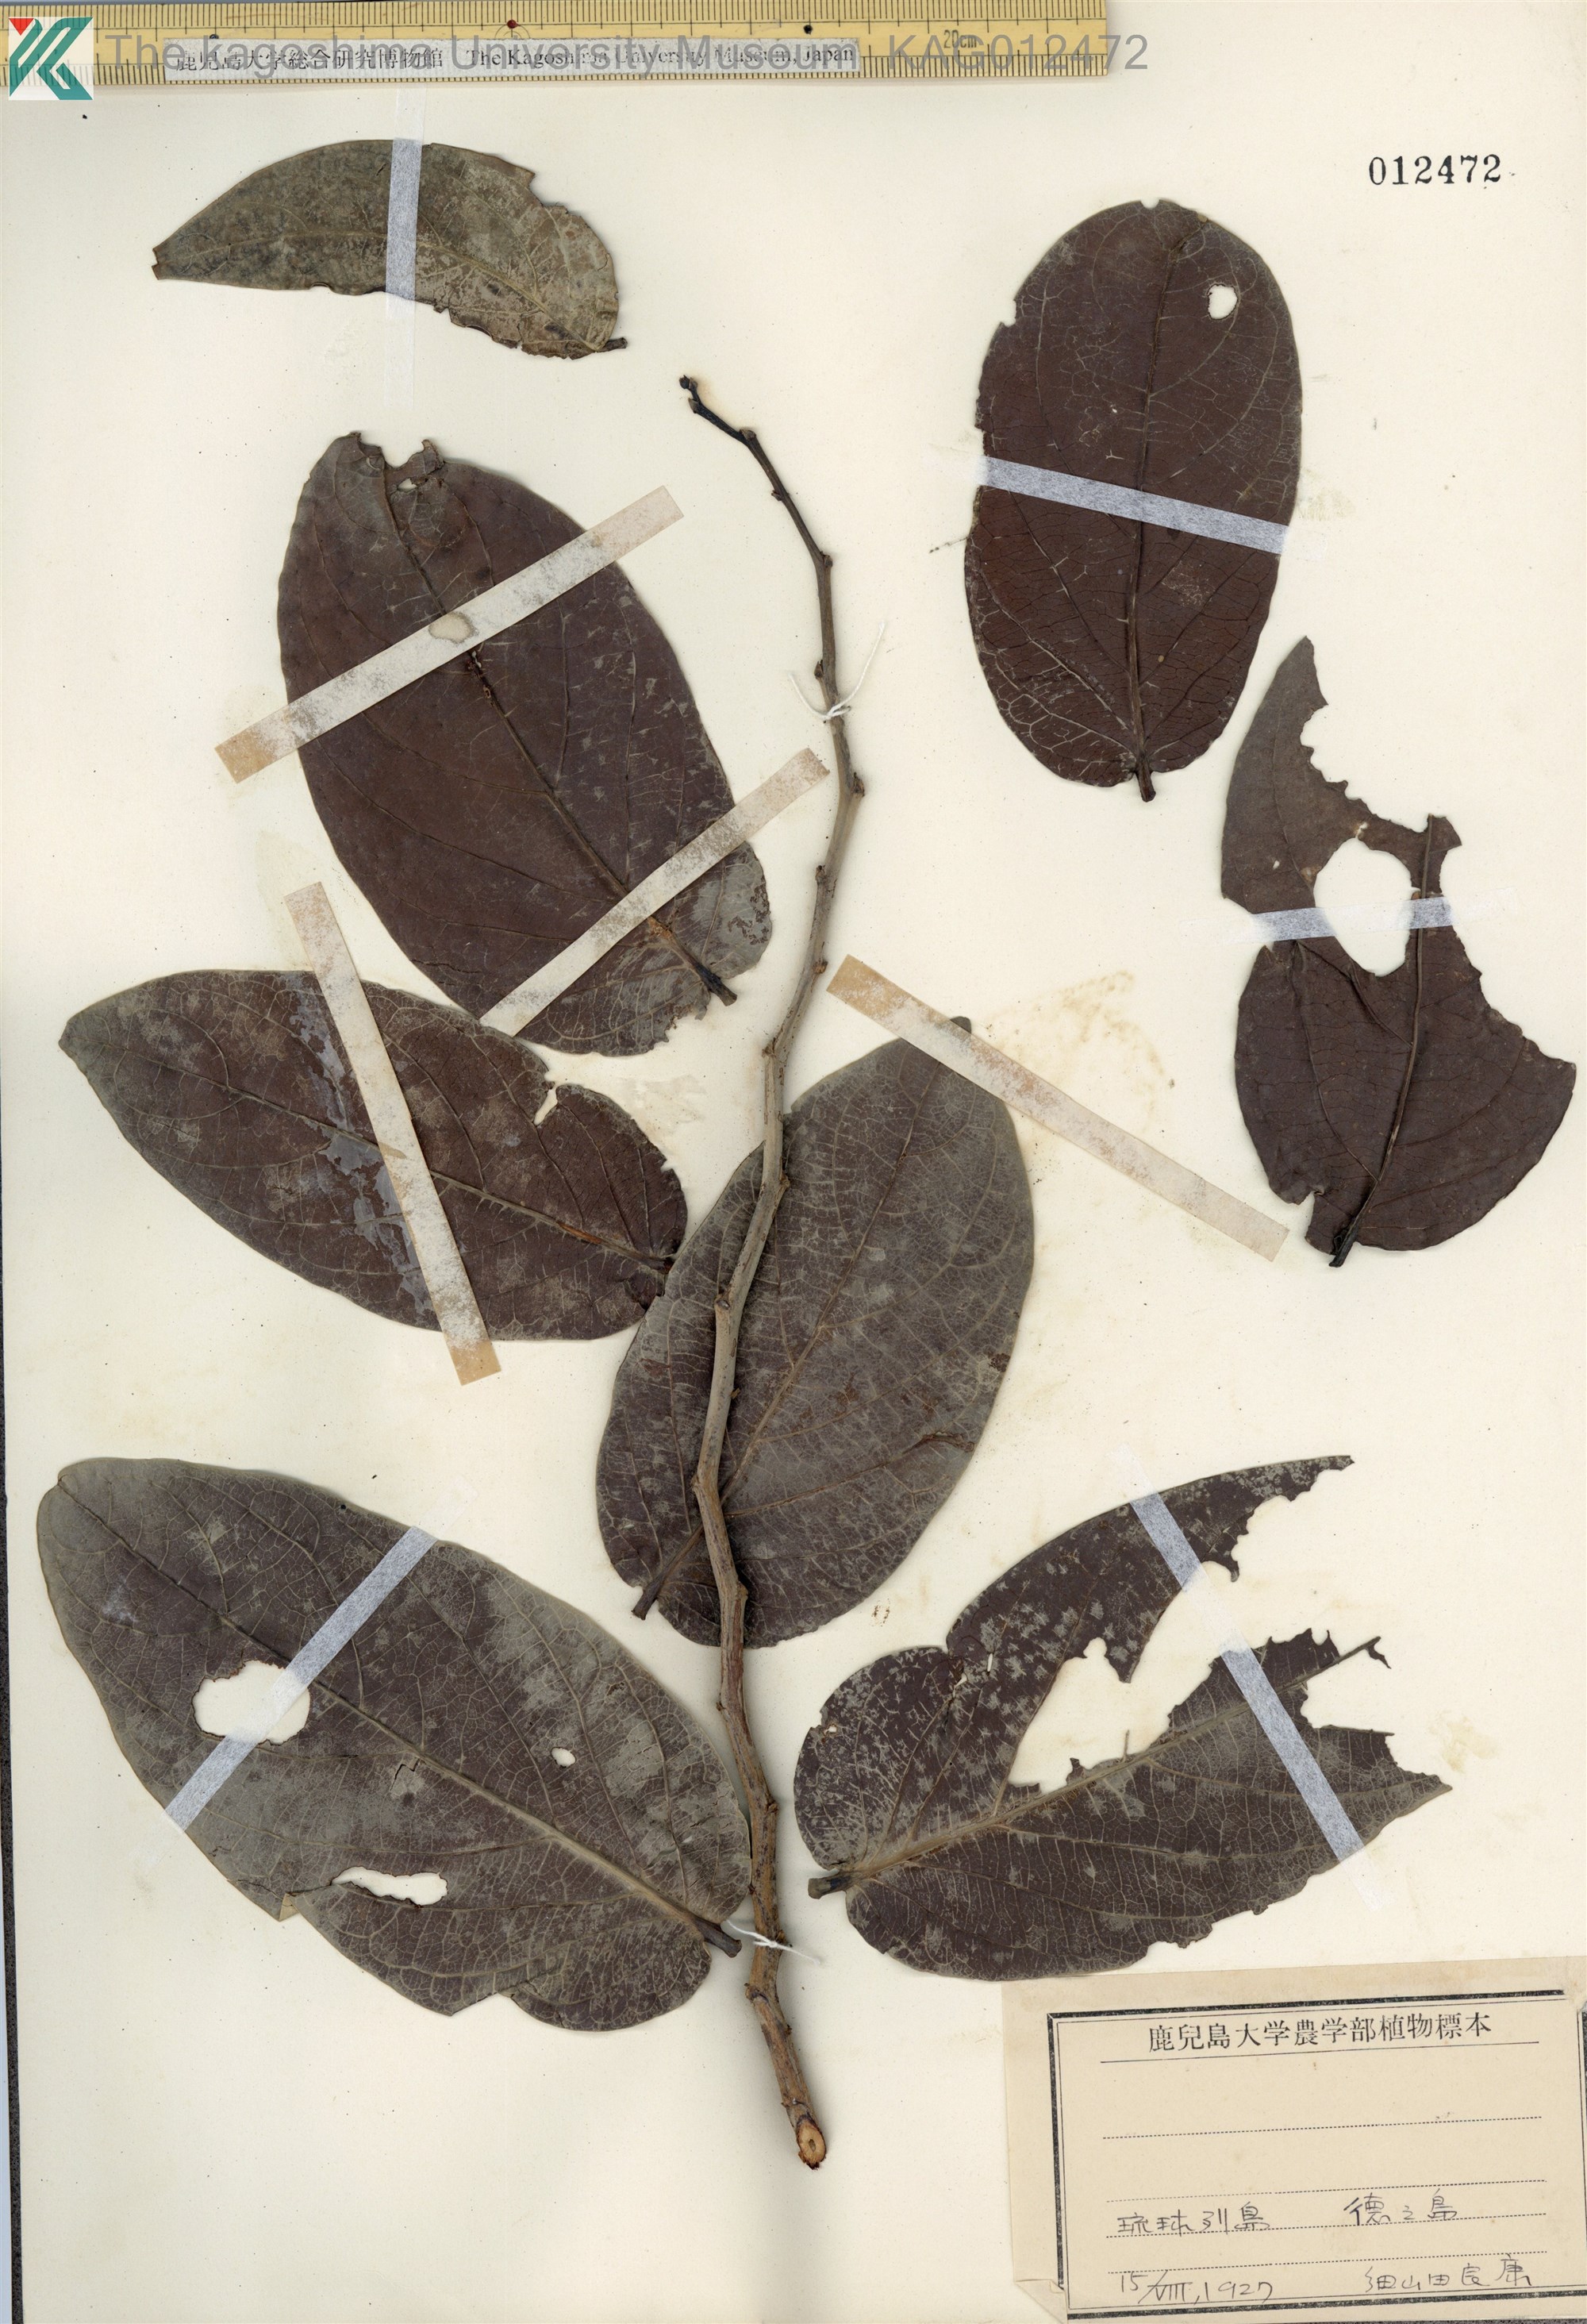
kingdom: Plantae
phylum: Tracheophyta
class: Magnoliopsida
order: Malpighiales
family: Phyllanthaceae
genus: Glochidion
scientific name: Glochidion zeylanicum
